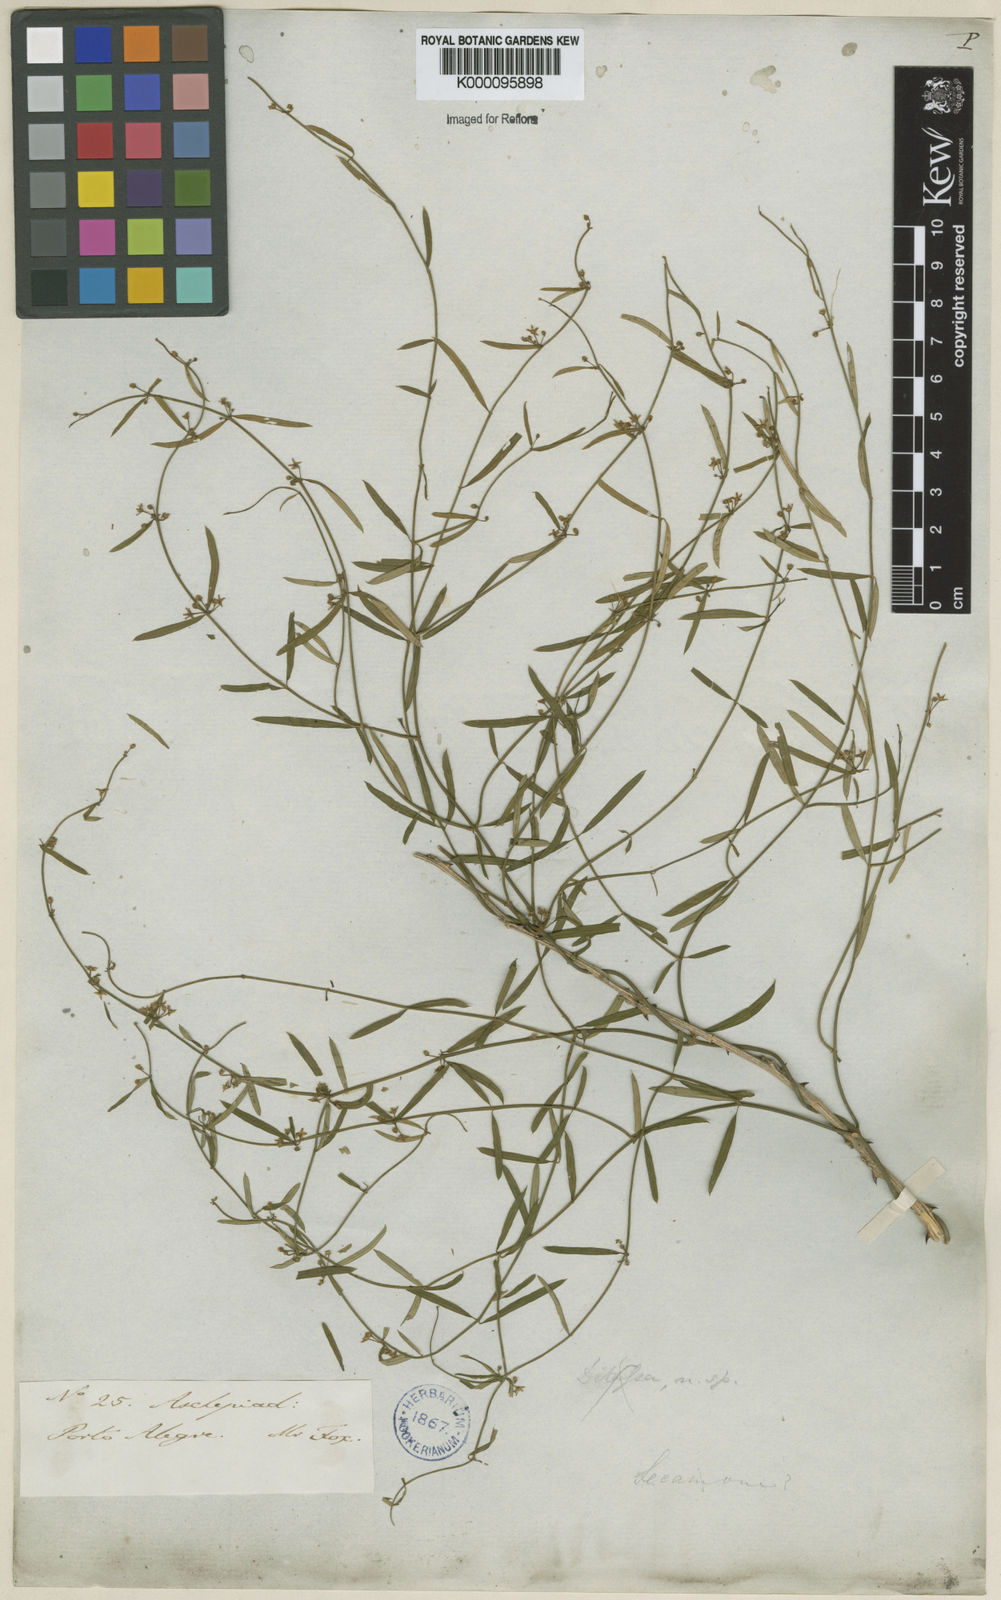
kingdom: Plantae
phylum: Tracheophyta
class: Magnoliopsida
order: Gentianales
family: Apocynaceae
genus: Orthosia
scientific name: Orthosia scoparia
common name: Leafless swallow-wort
